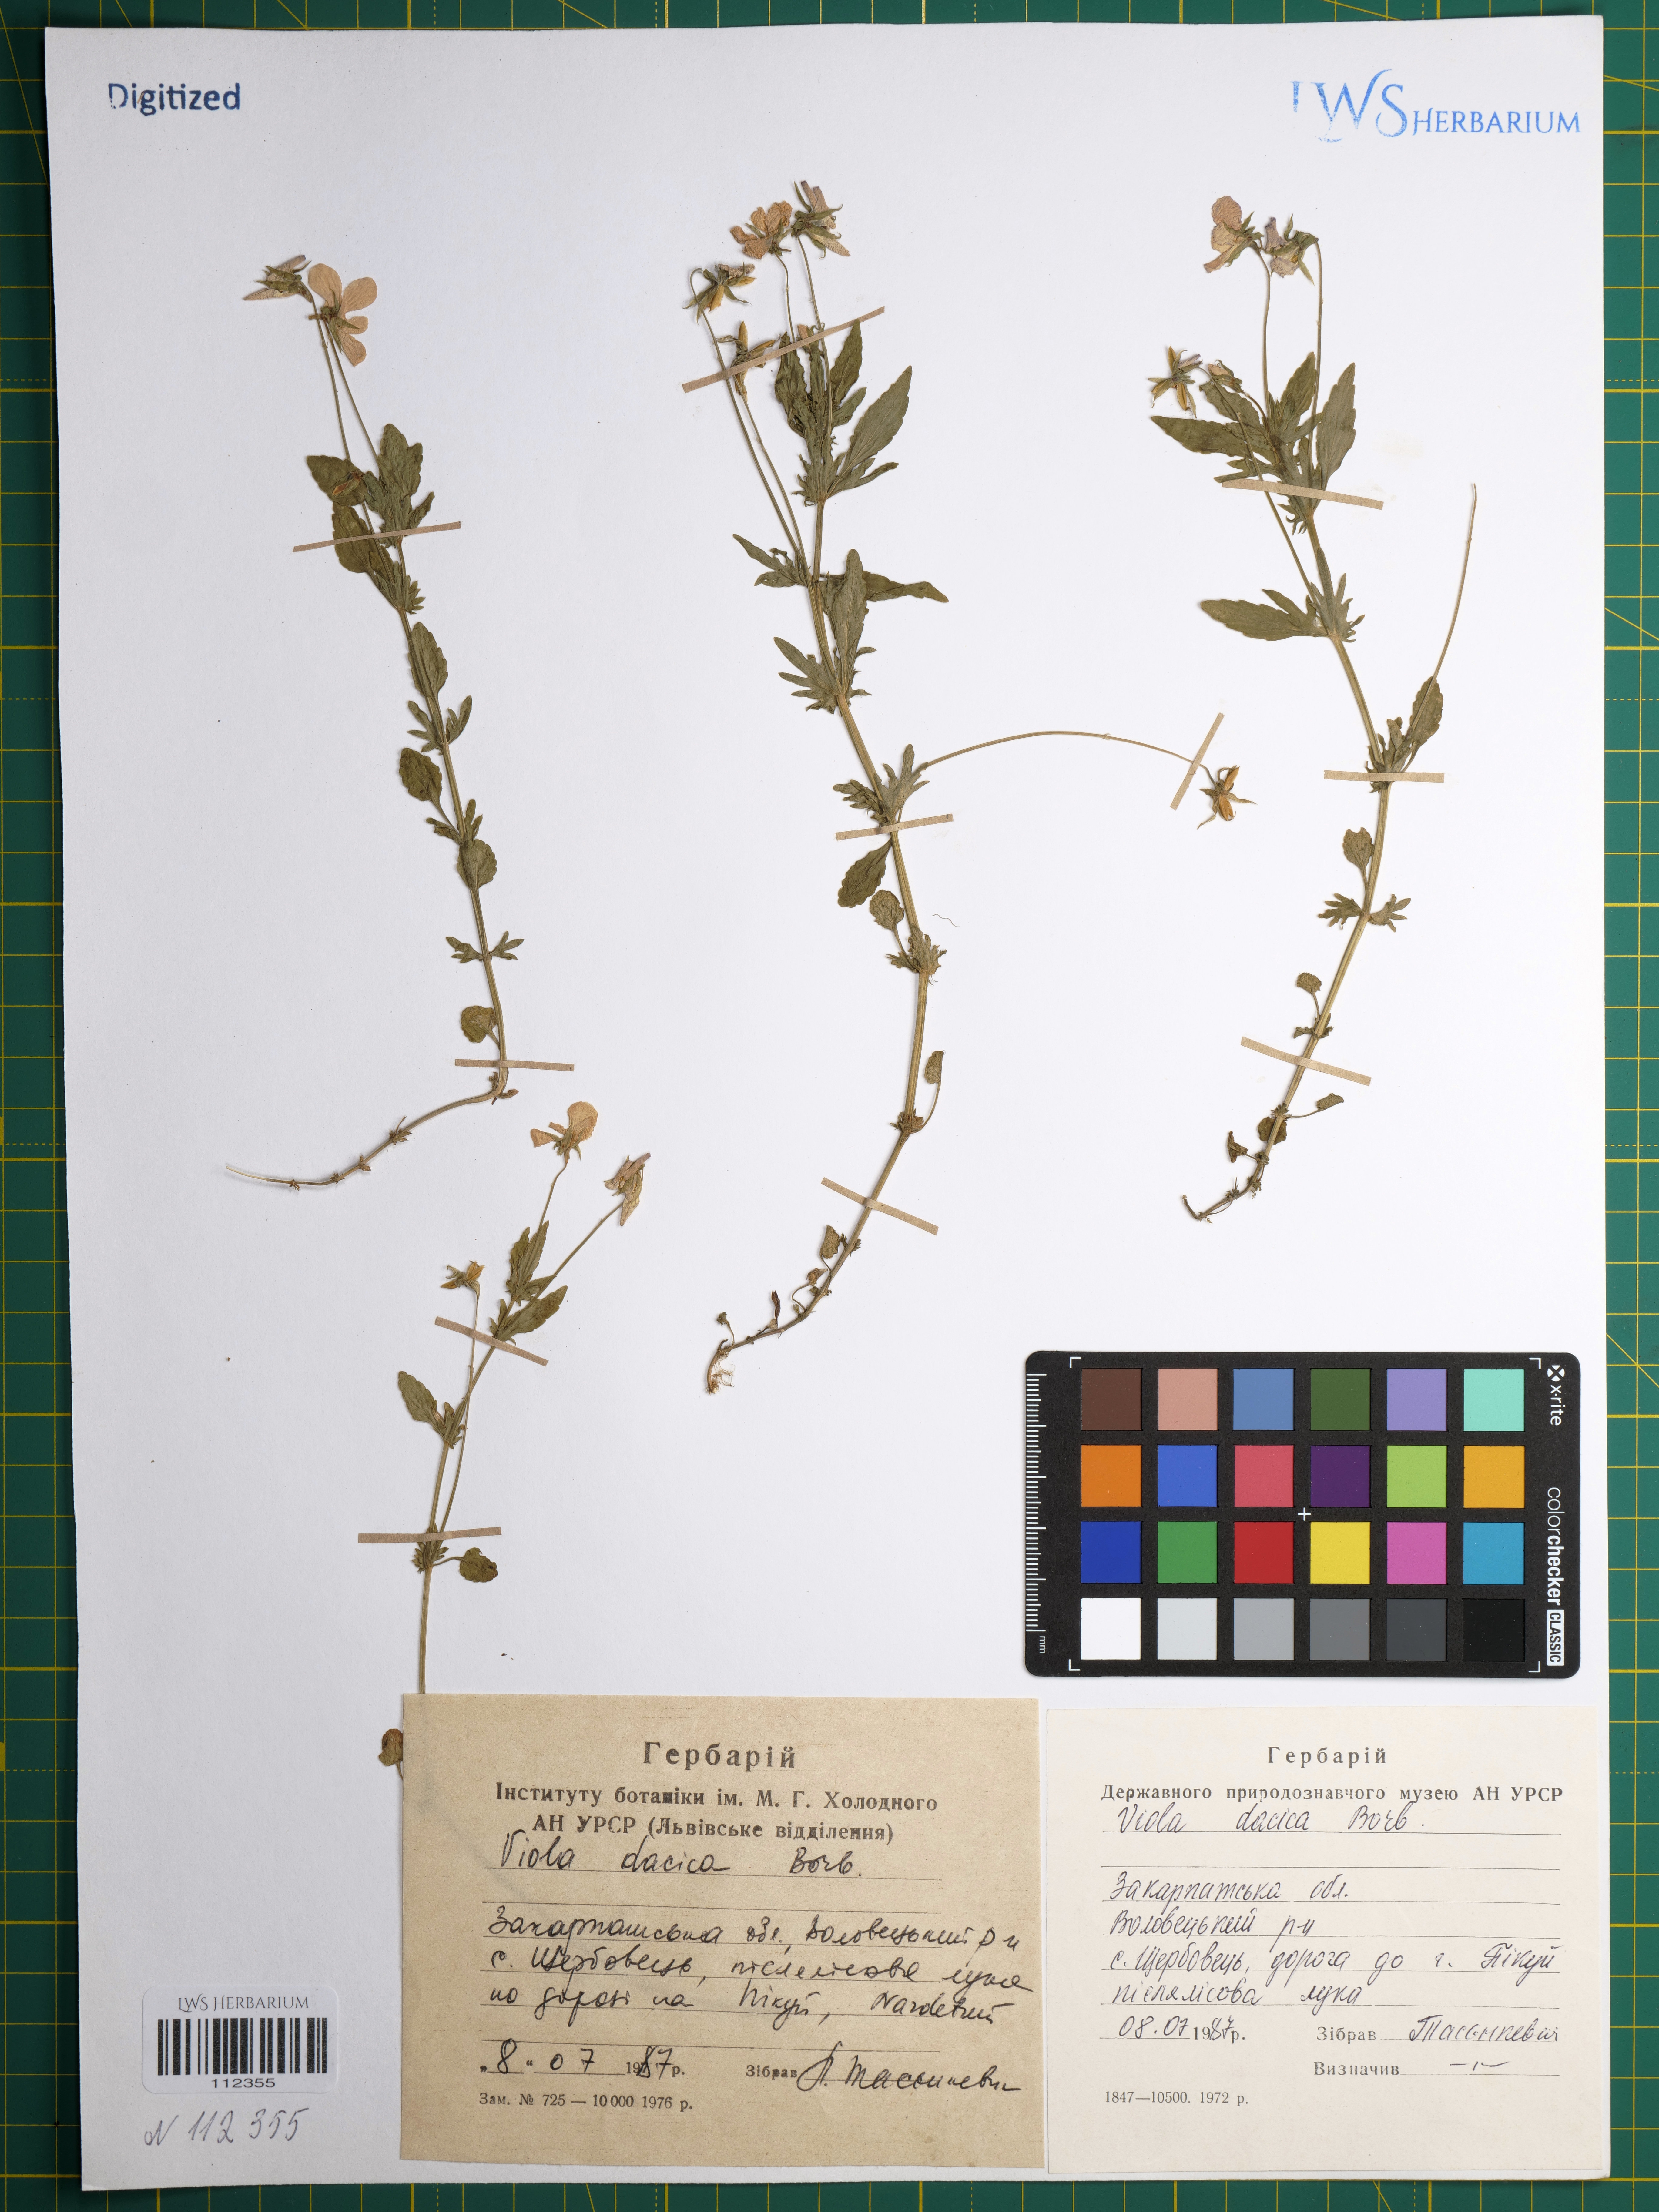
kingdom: Plantae
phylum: Tracheophyta
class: Magnoliopsida
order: Malpighiales
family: Violaceae
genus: Viola
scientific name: Viola dacica
